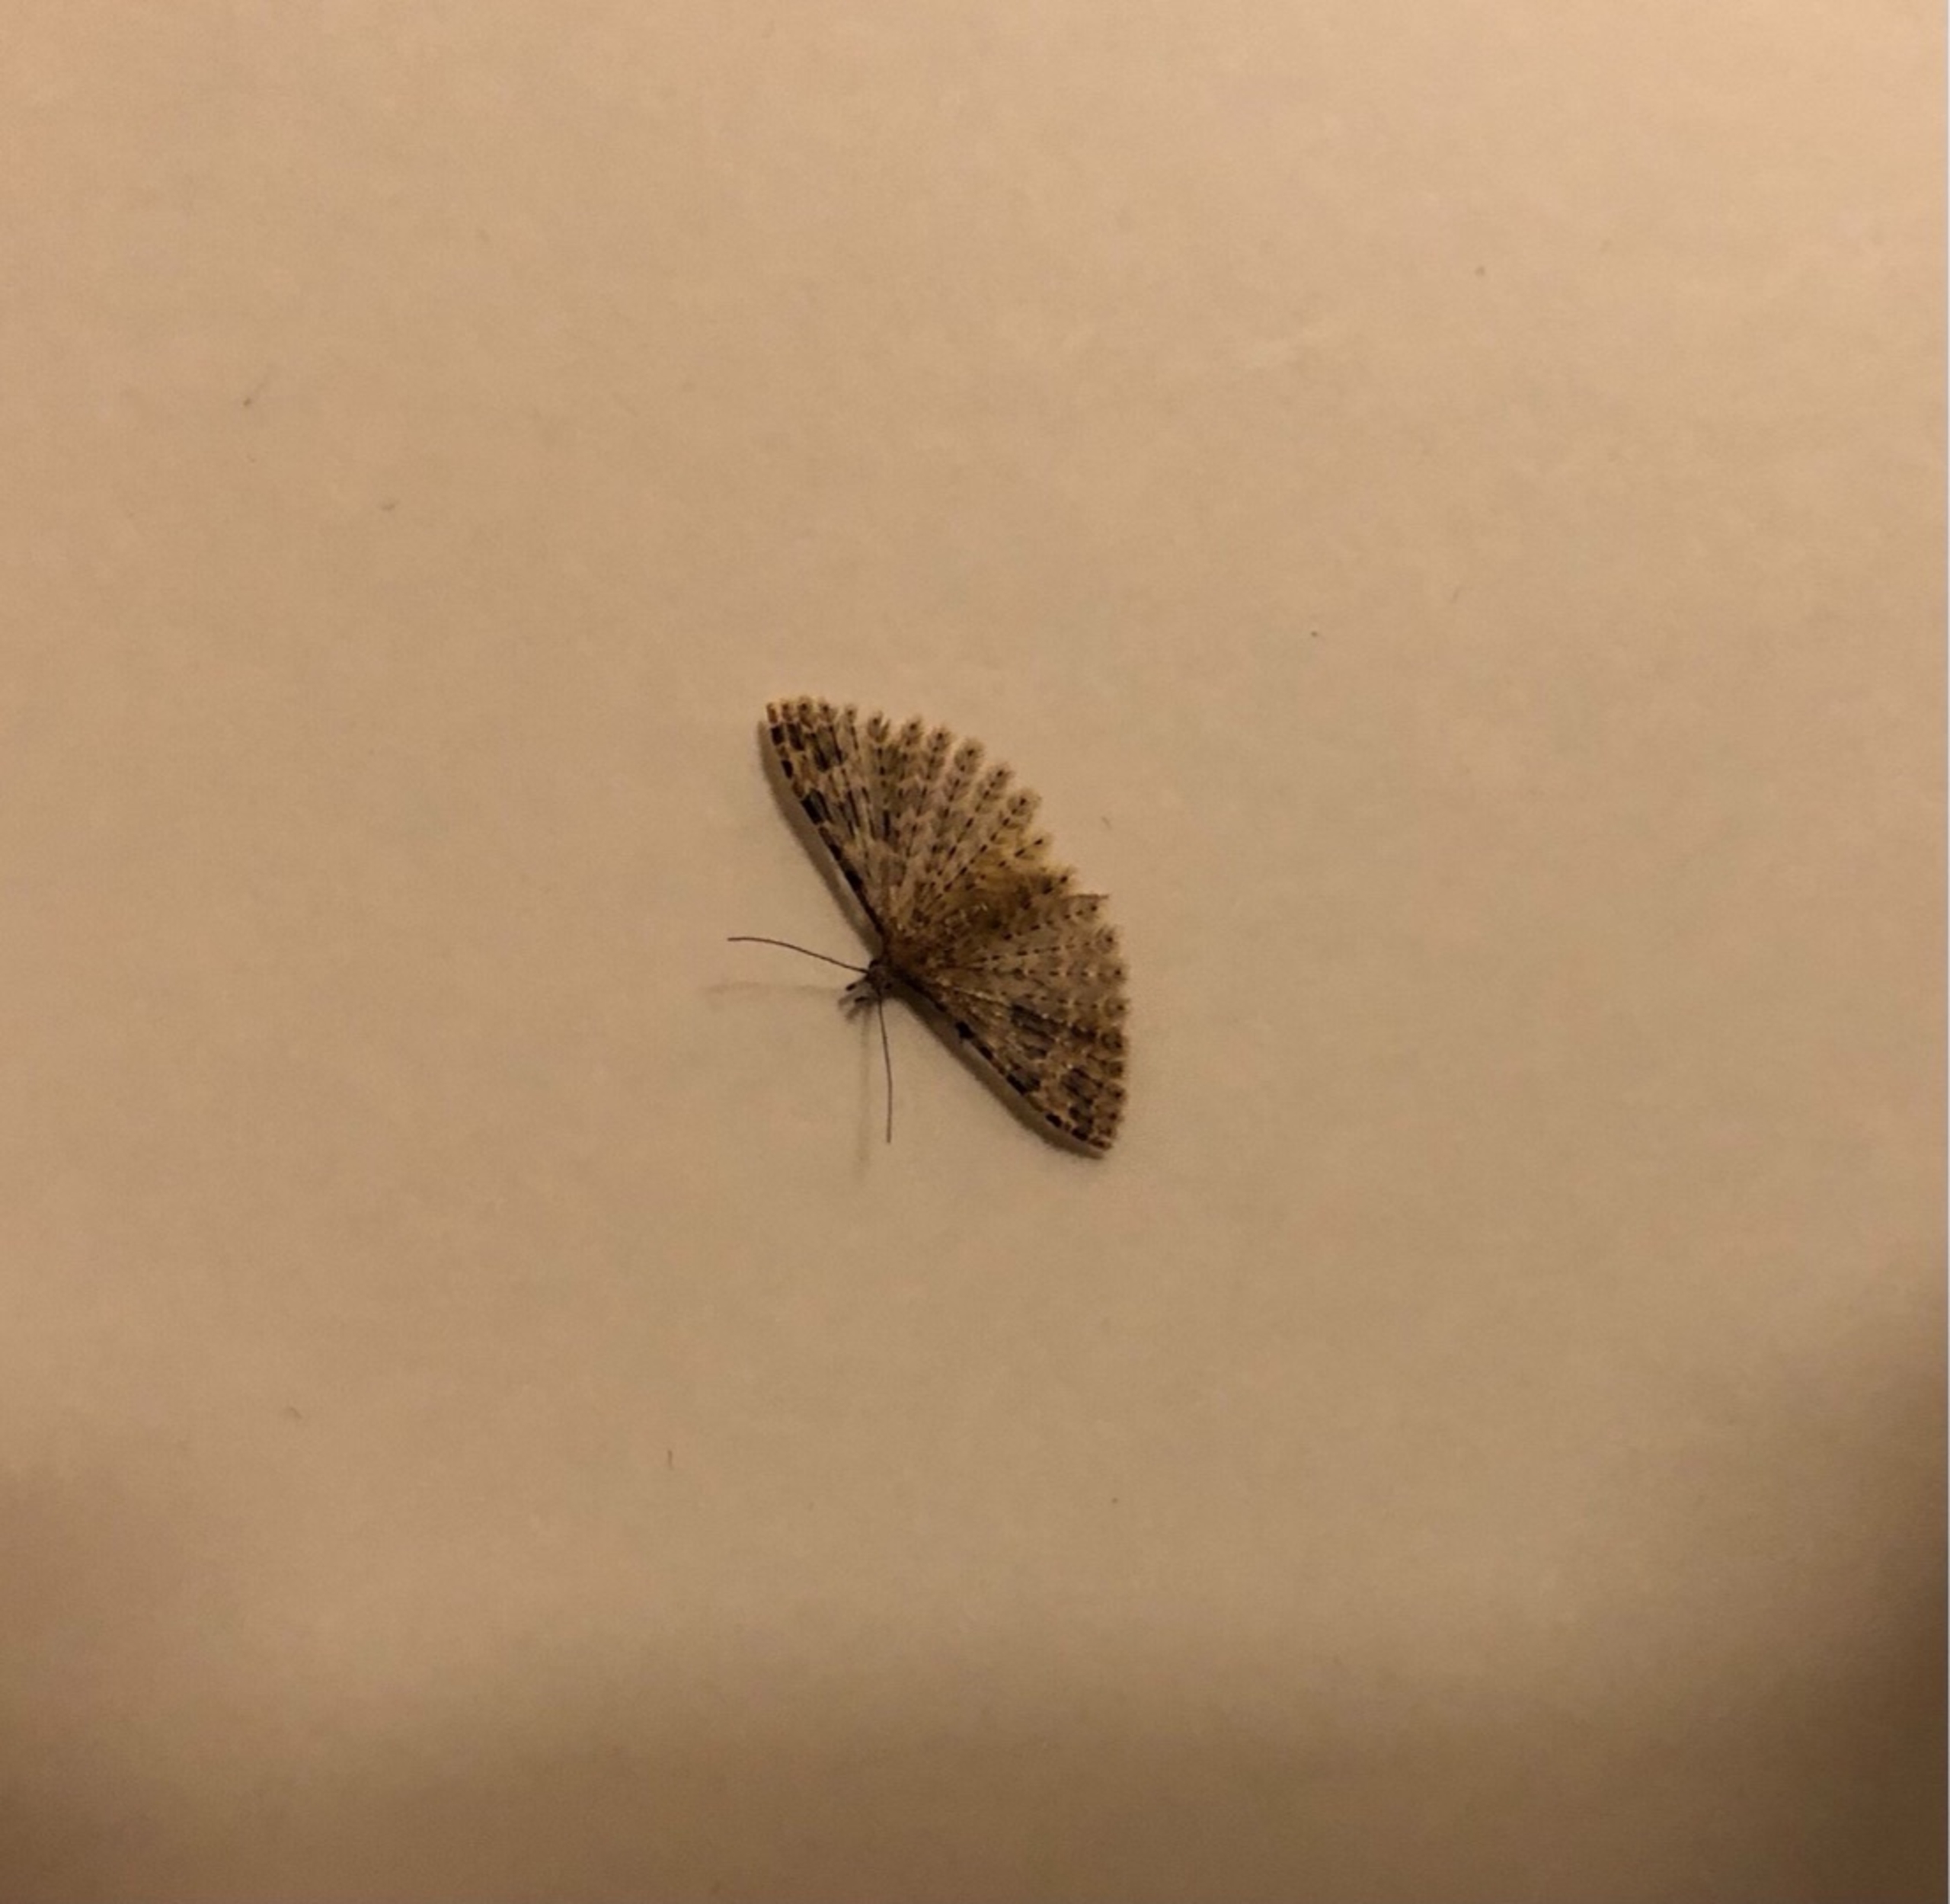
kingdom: Animalia
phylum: Arthropoda
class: Insecta
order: Lepidoptera
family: Alucitidae
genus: Alucita
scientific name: Alucita hexadactyla
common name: Kaprifoliefjermøl
